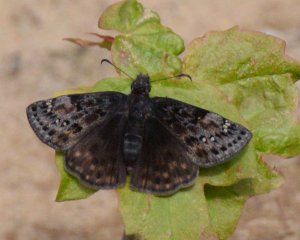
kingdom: Animalia
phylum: Arthropoda
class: Insecta
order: Lepidoptera
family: Hesperiidae
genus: Gesta
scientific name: Gesta
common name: Columbine Duskywing
